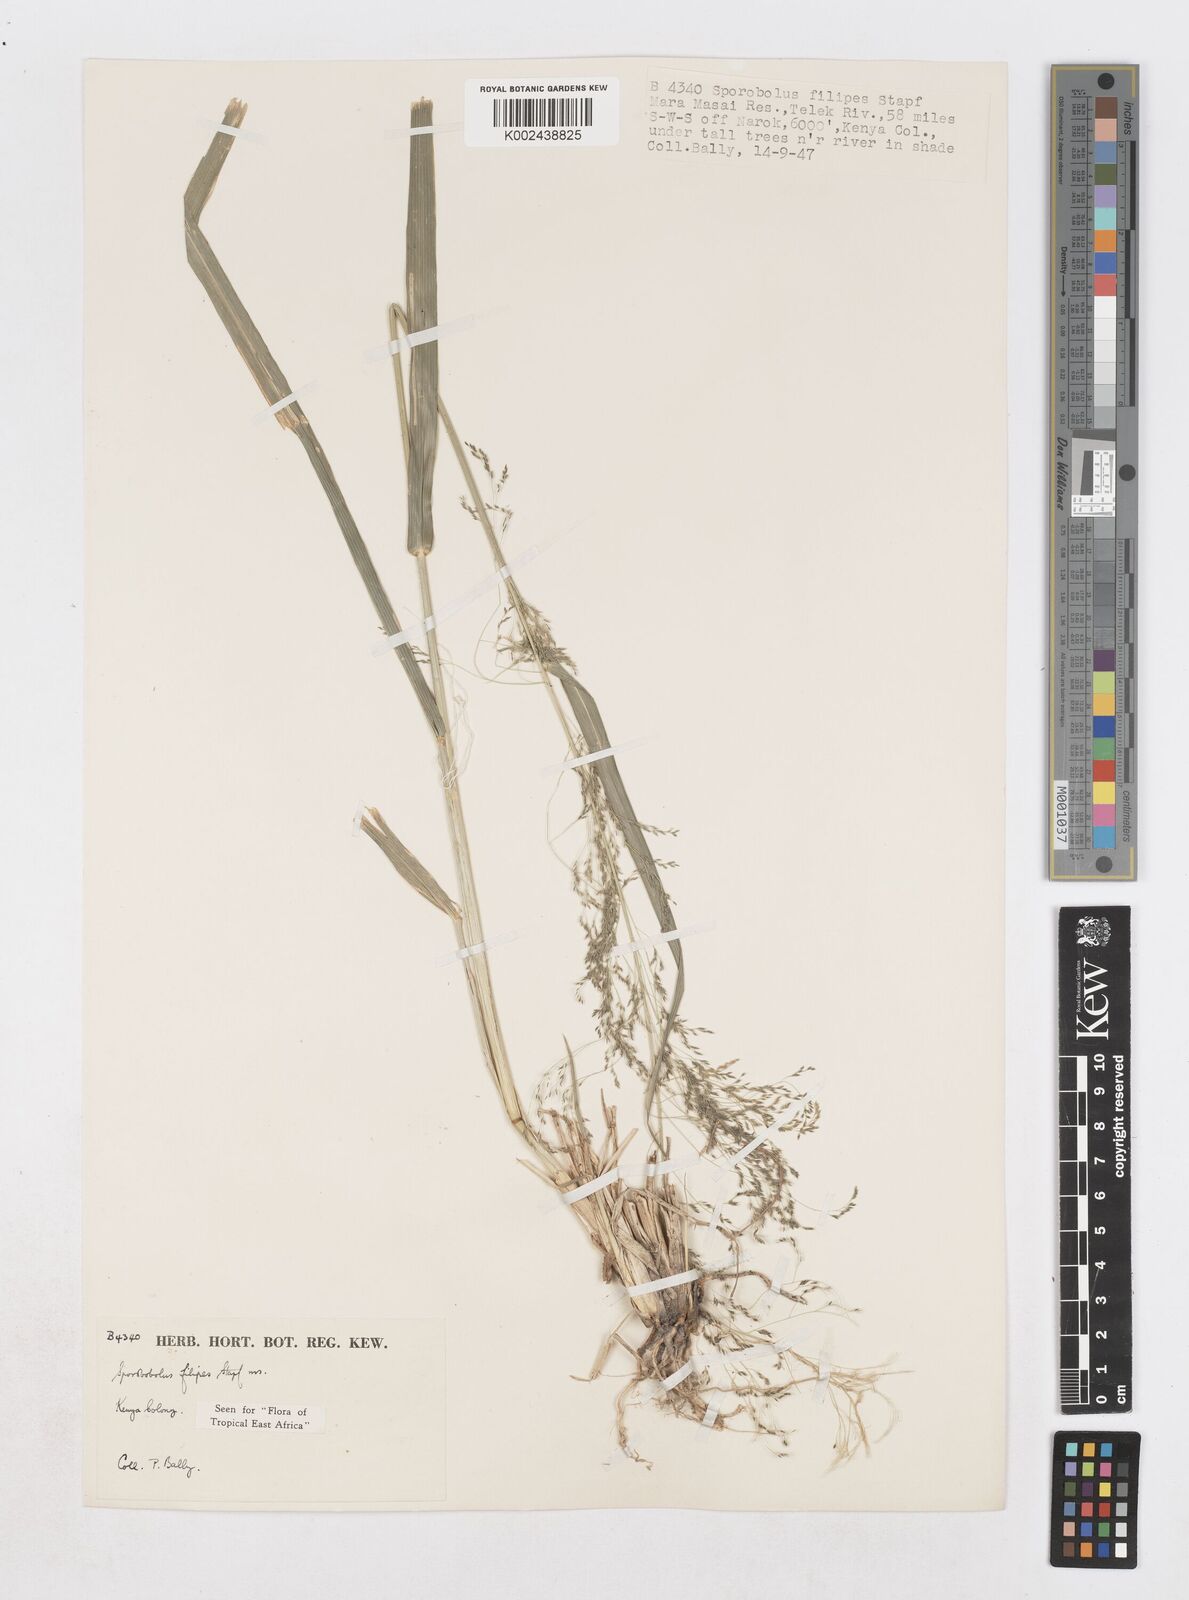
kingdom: Plantae
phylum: Tracheophyta
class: Liliopsida
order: Poales
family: Poaceae
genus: Sporobolus
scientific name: Sporobolus agrostoides
